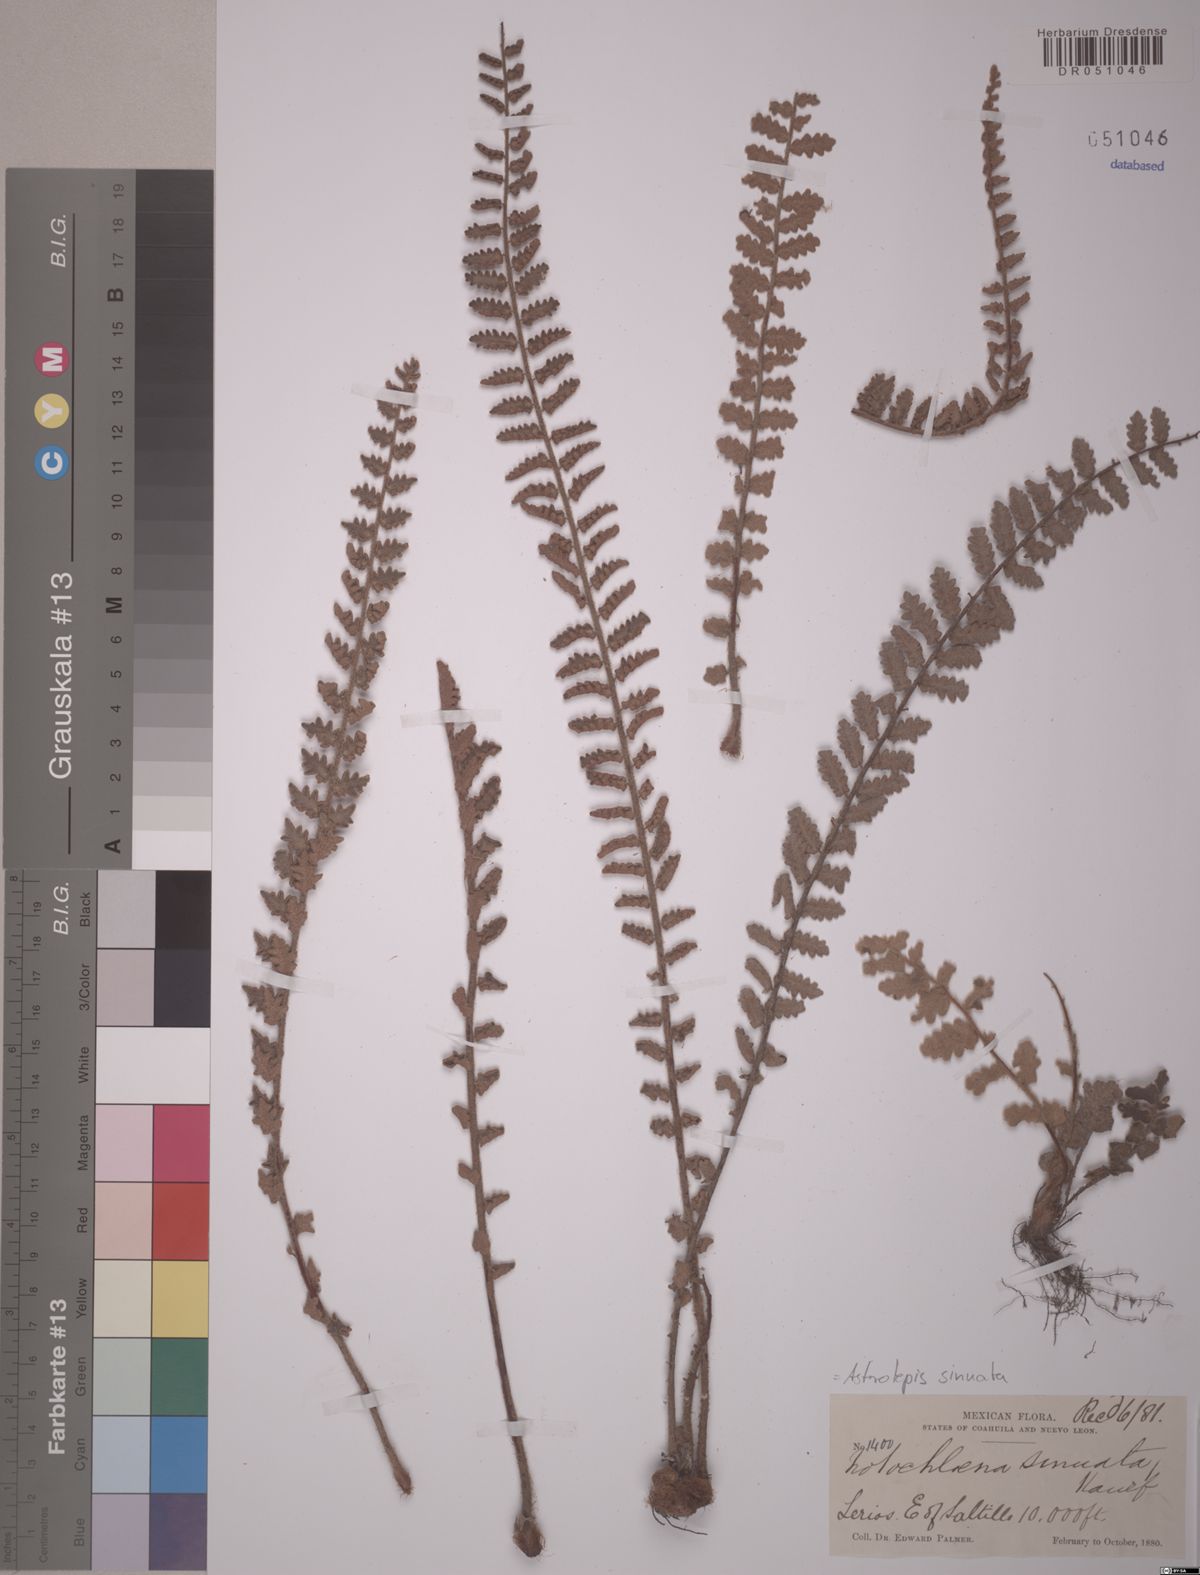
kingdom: Plantae
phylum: Tracheophyta
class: Polypodiopsida
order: Polypodiales
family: Pteridaceae
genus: Astrolepis
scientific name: Astrolepis sinuata
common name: Wavy scaly cloakfern
